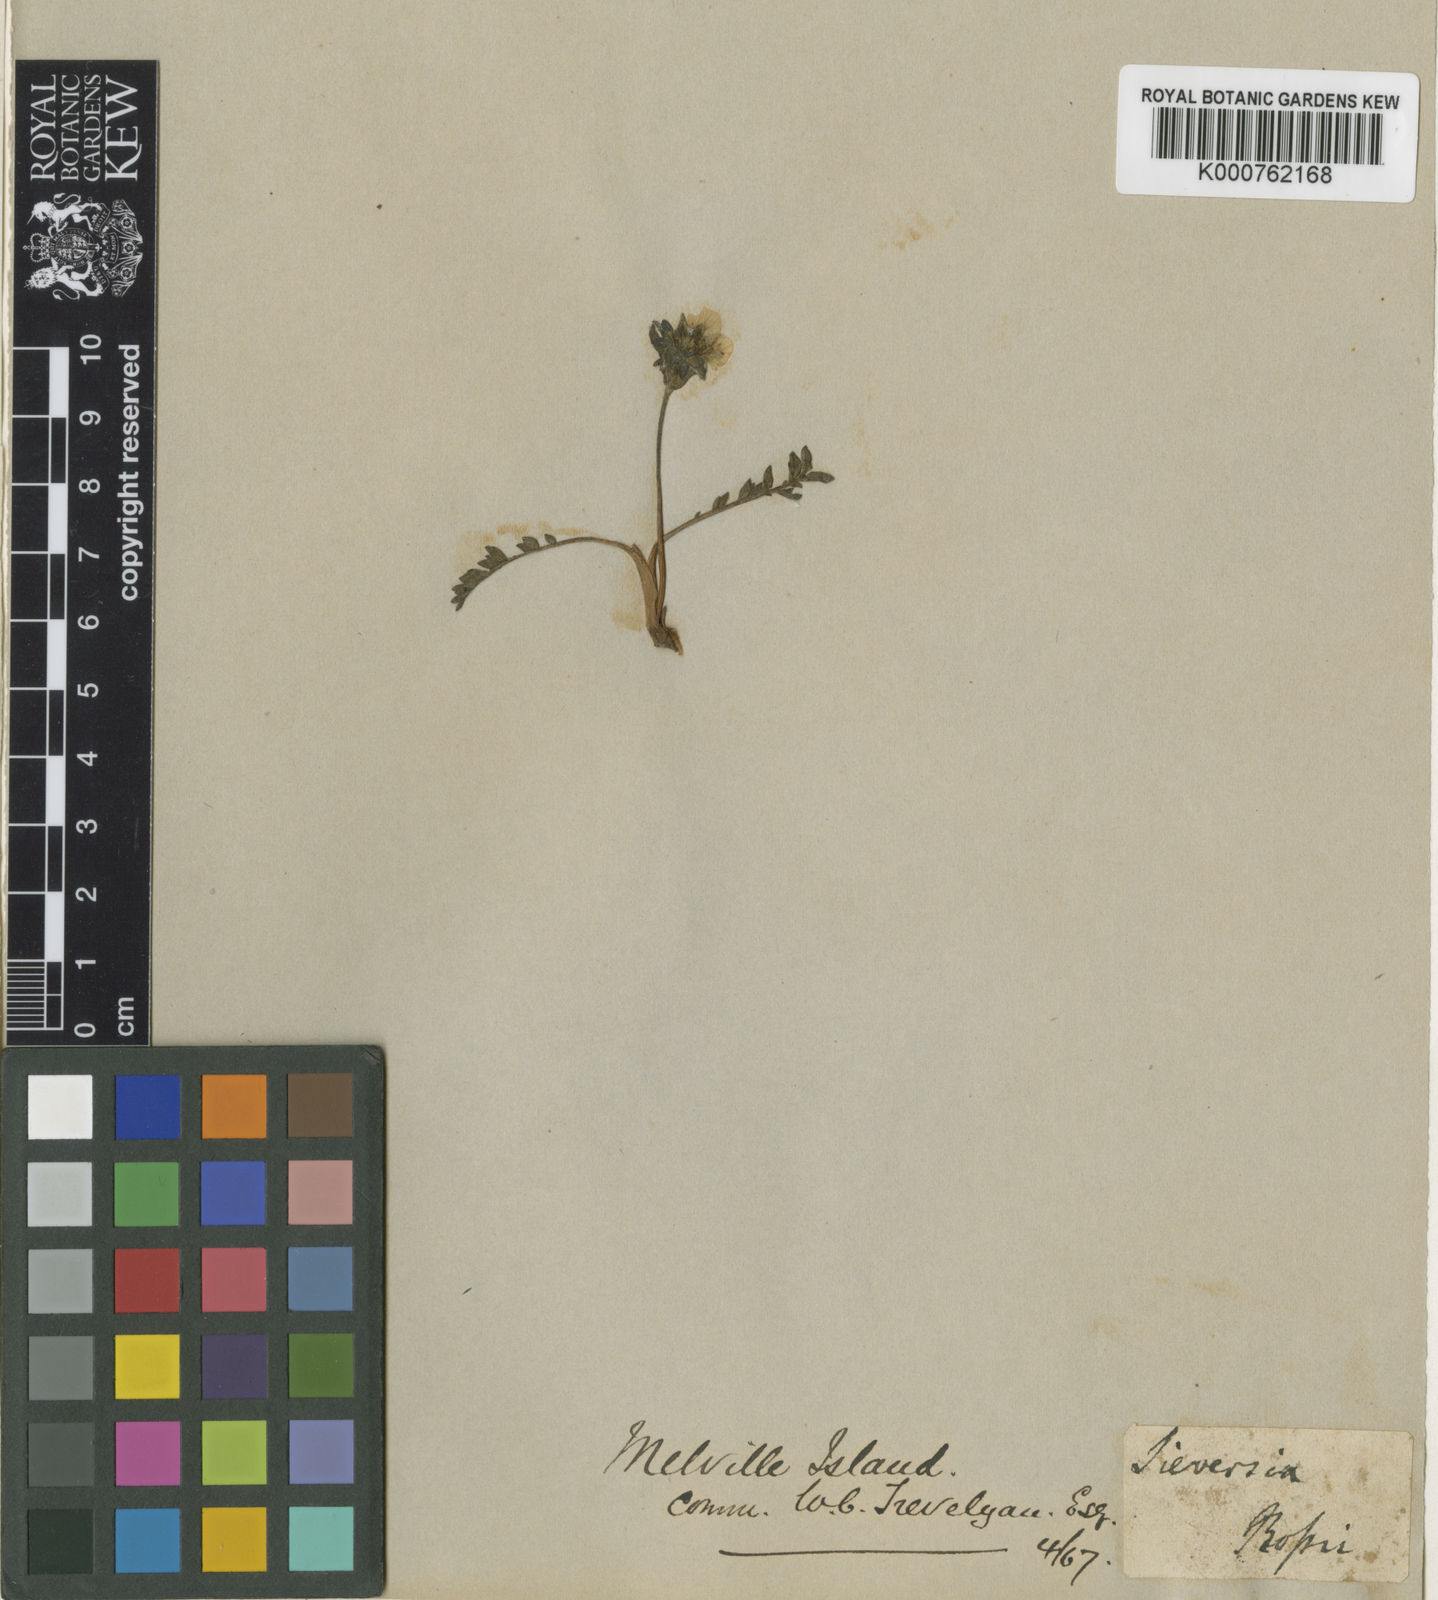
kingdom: Plantae
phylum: Tracheophyta
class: Magnoliopsida
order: Rosales
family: Rosaceae
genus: Geum
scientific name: Geum rossii
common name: Alpine avens
